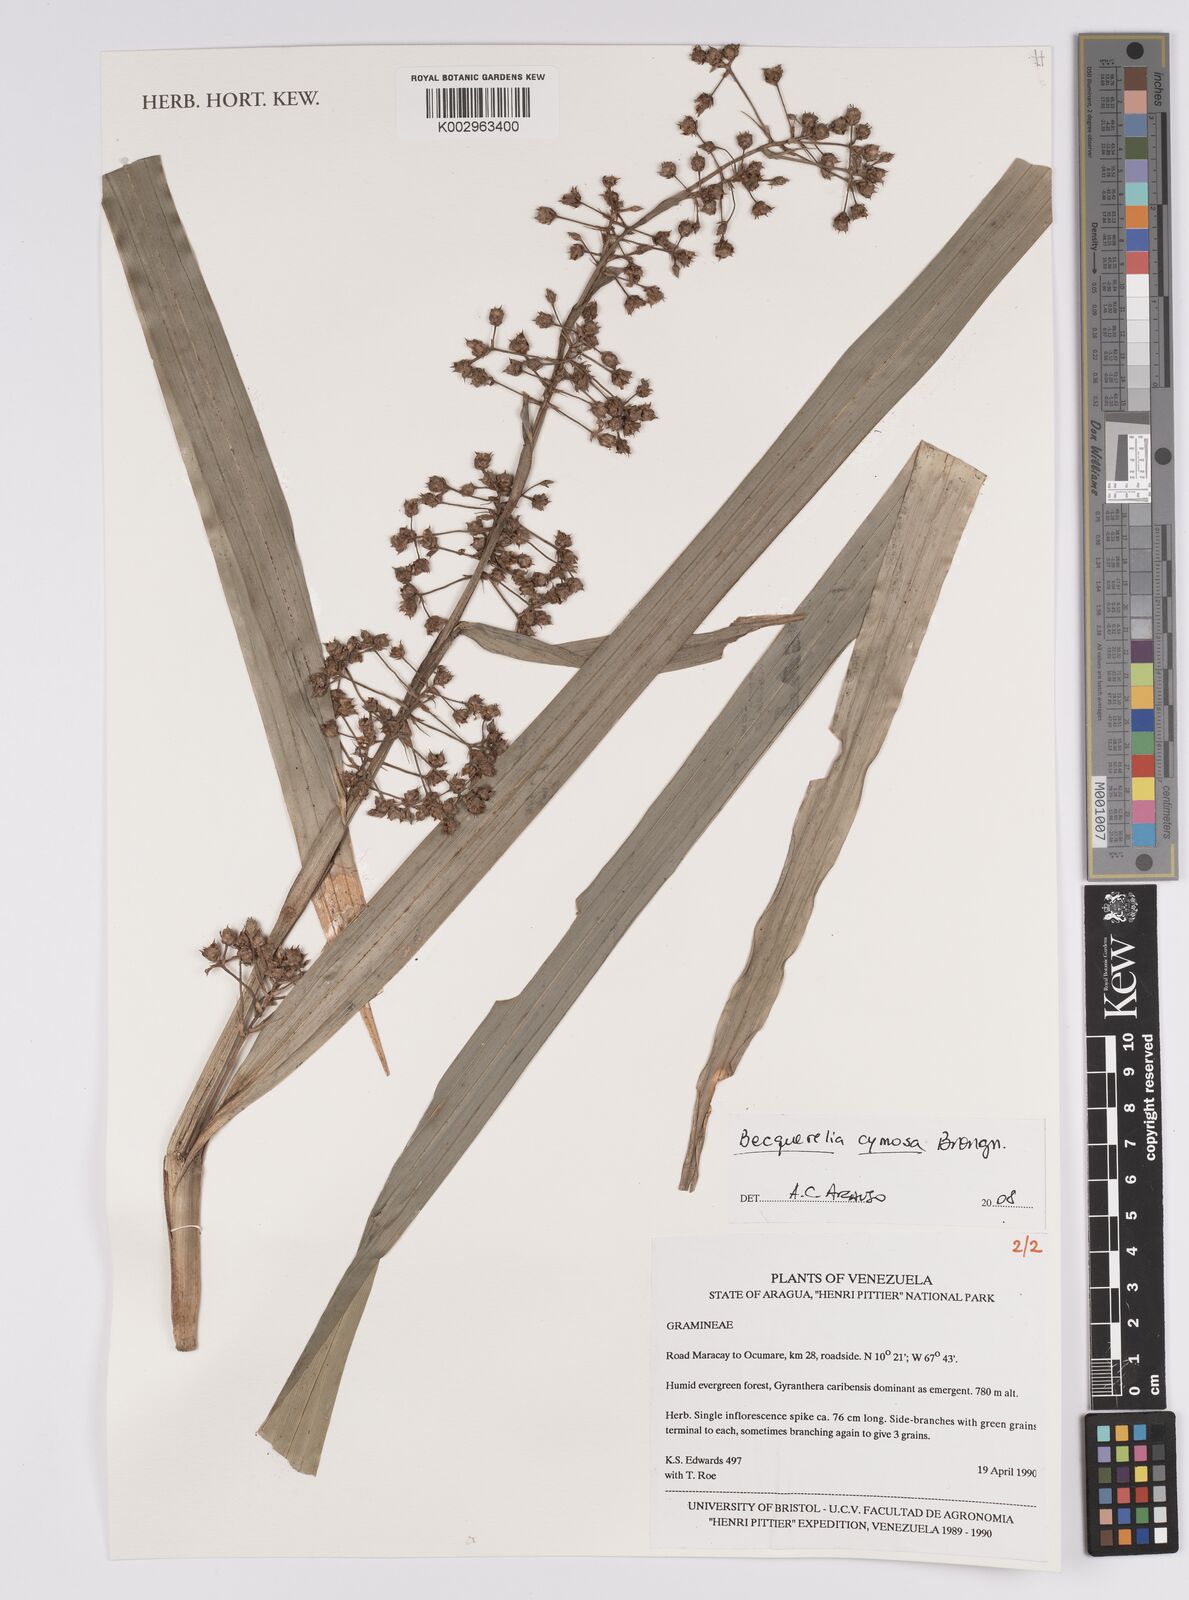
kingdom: Plantae
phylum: Tracheophyta
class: Liliopsida
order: Poales
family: Cyperaceae
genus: Becquerelia
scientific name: Becquerelia cymosa
